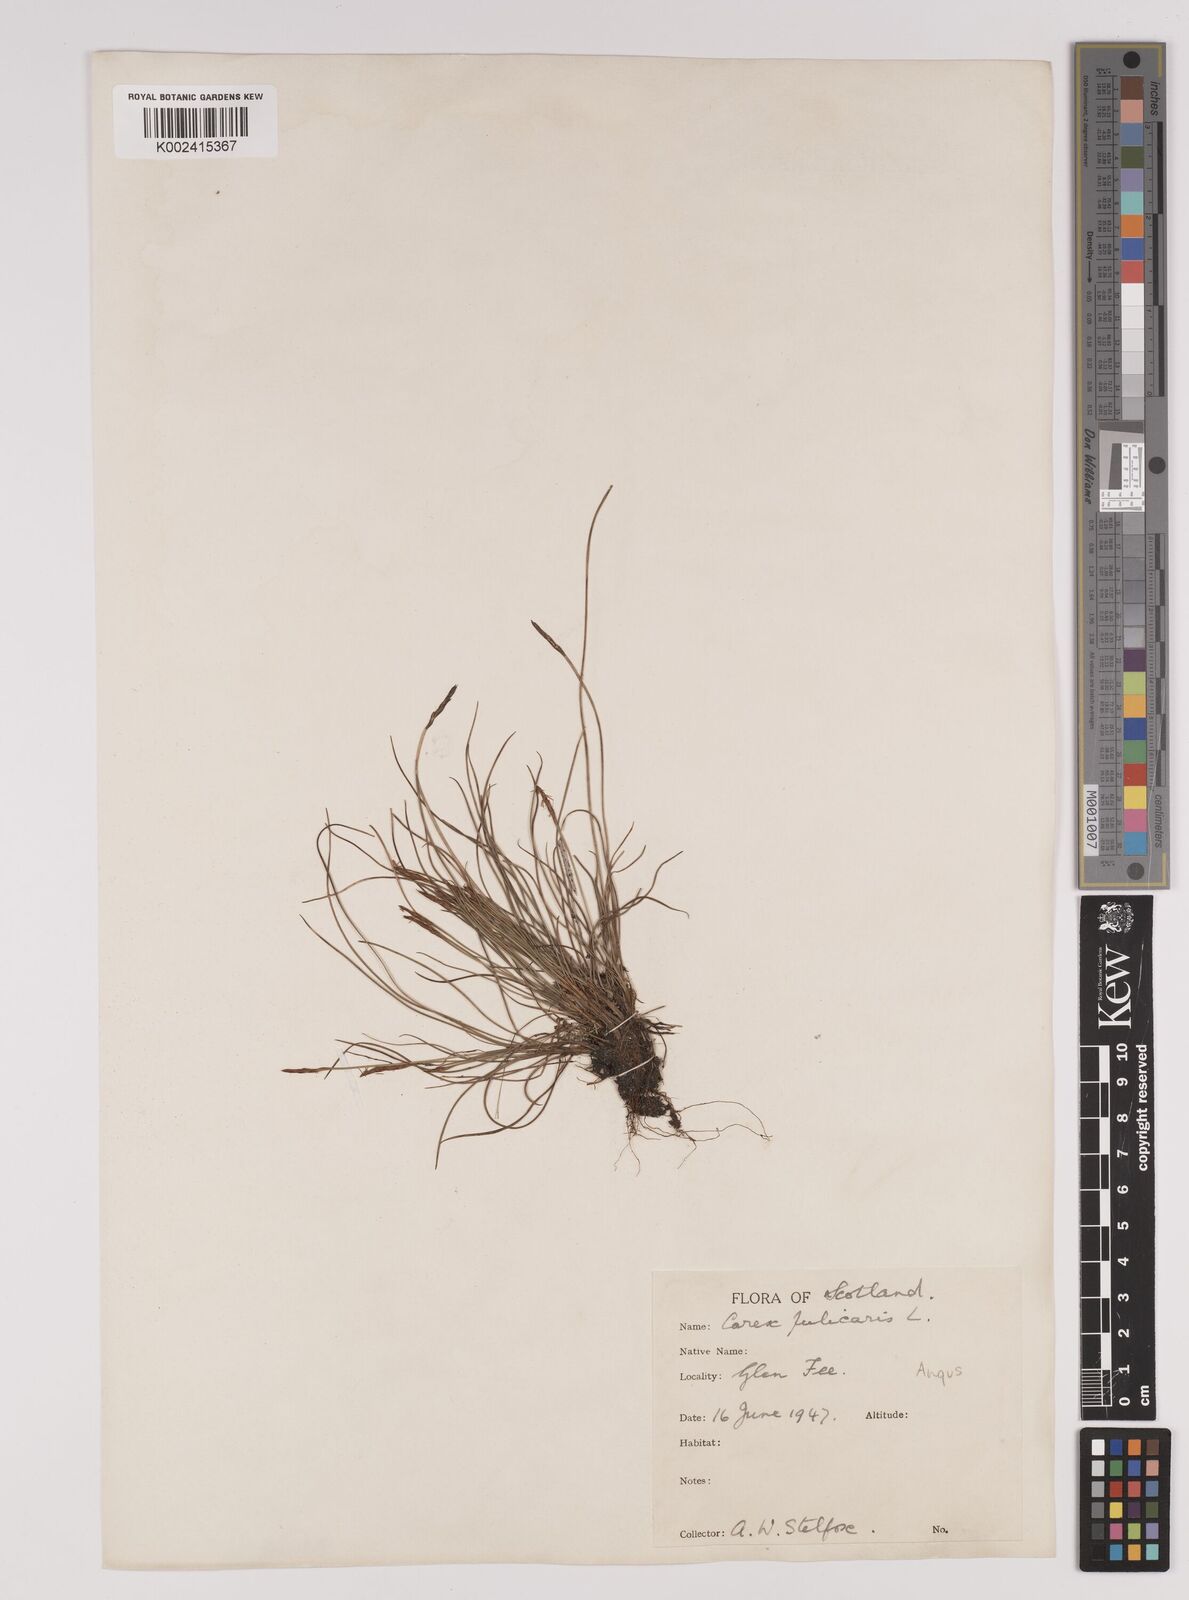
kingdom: Plantae
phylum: Tracheophyta
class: Liliopsida
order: Poales
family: Cyperaceae
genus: Carex
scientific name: Carex pulicaris
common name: Flea sedge
